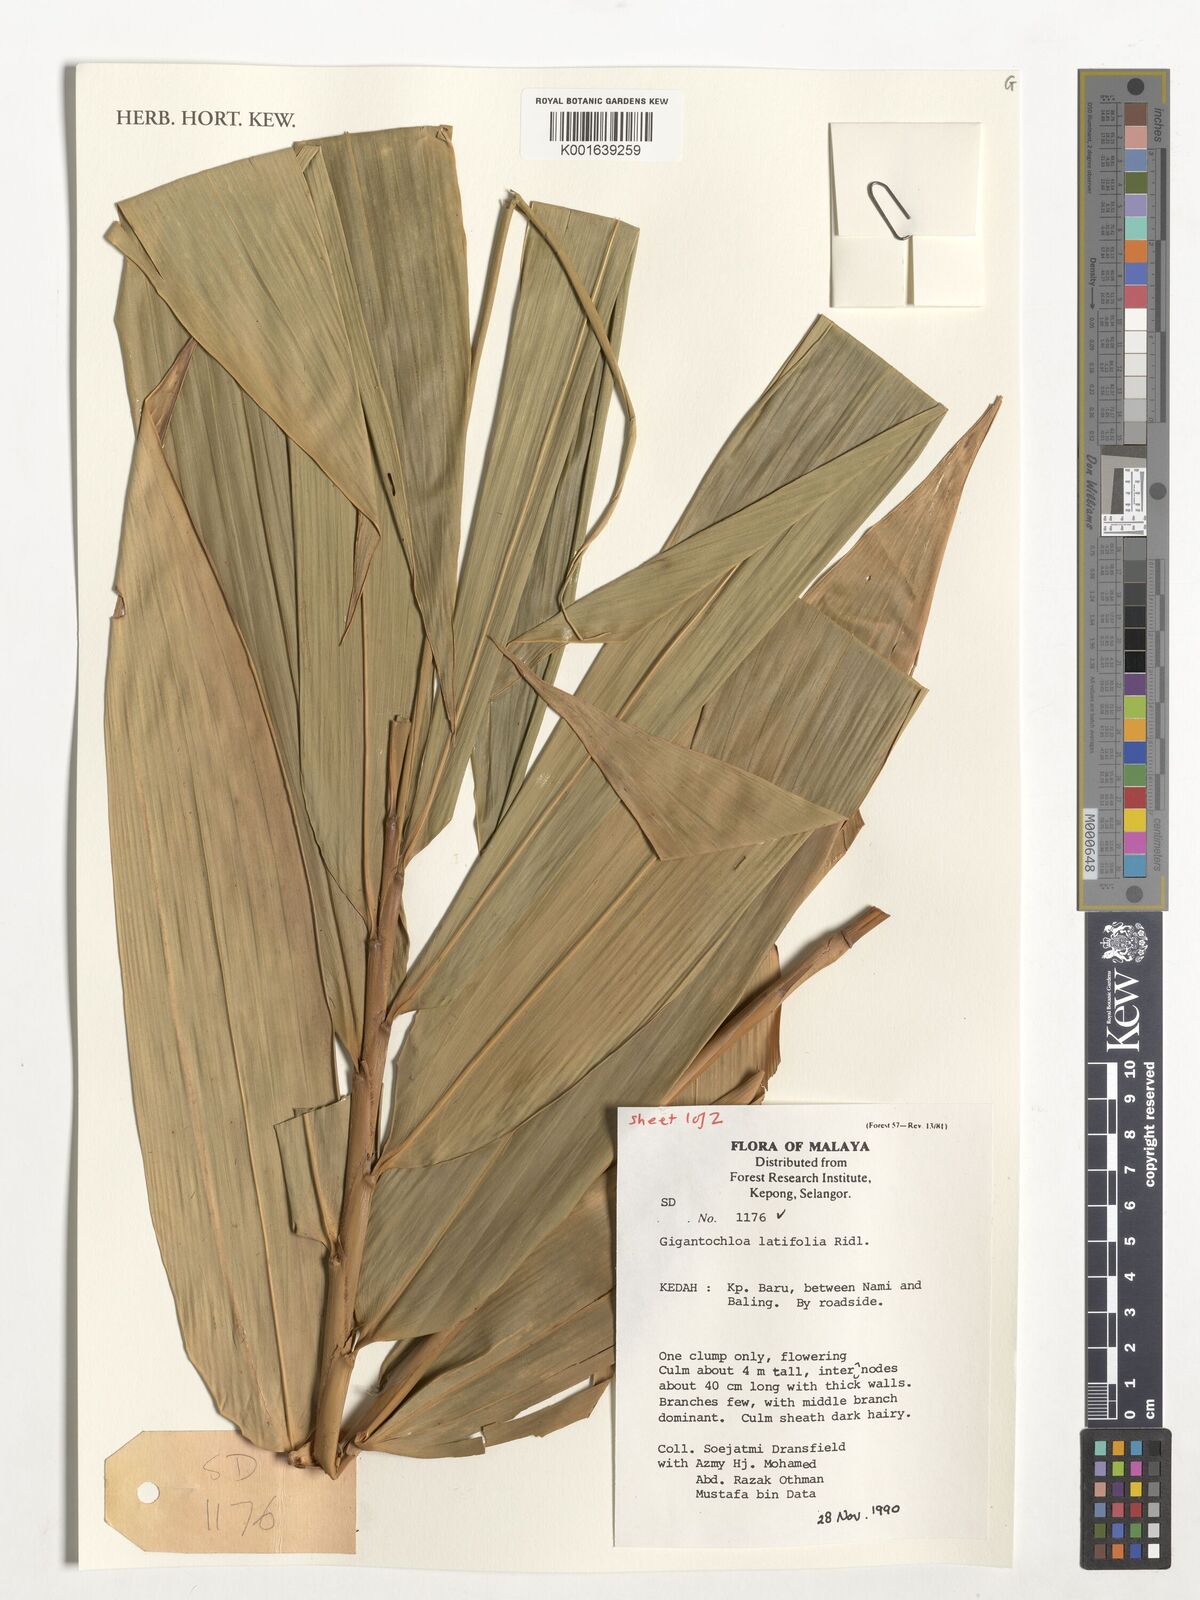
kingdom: Plantae
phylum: Tracheophyta
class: Liliopsida
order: Poales
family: Poaceae
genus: Gigantochloa
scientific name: Gigantochloa latifolia
